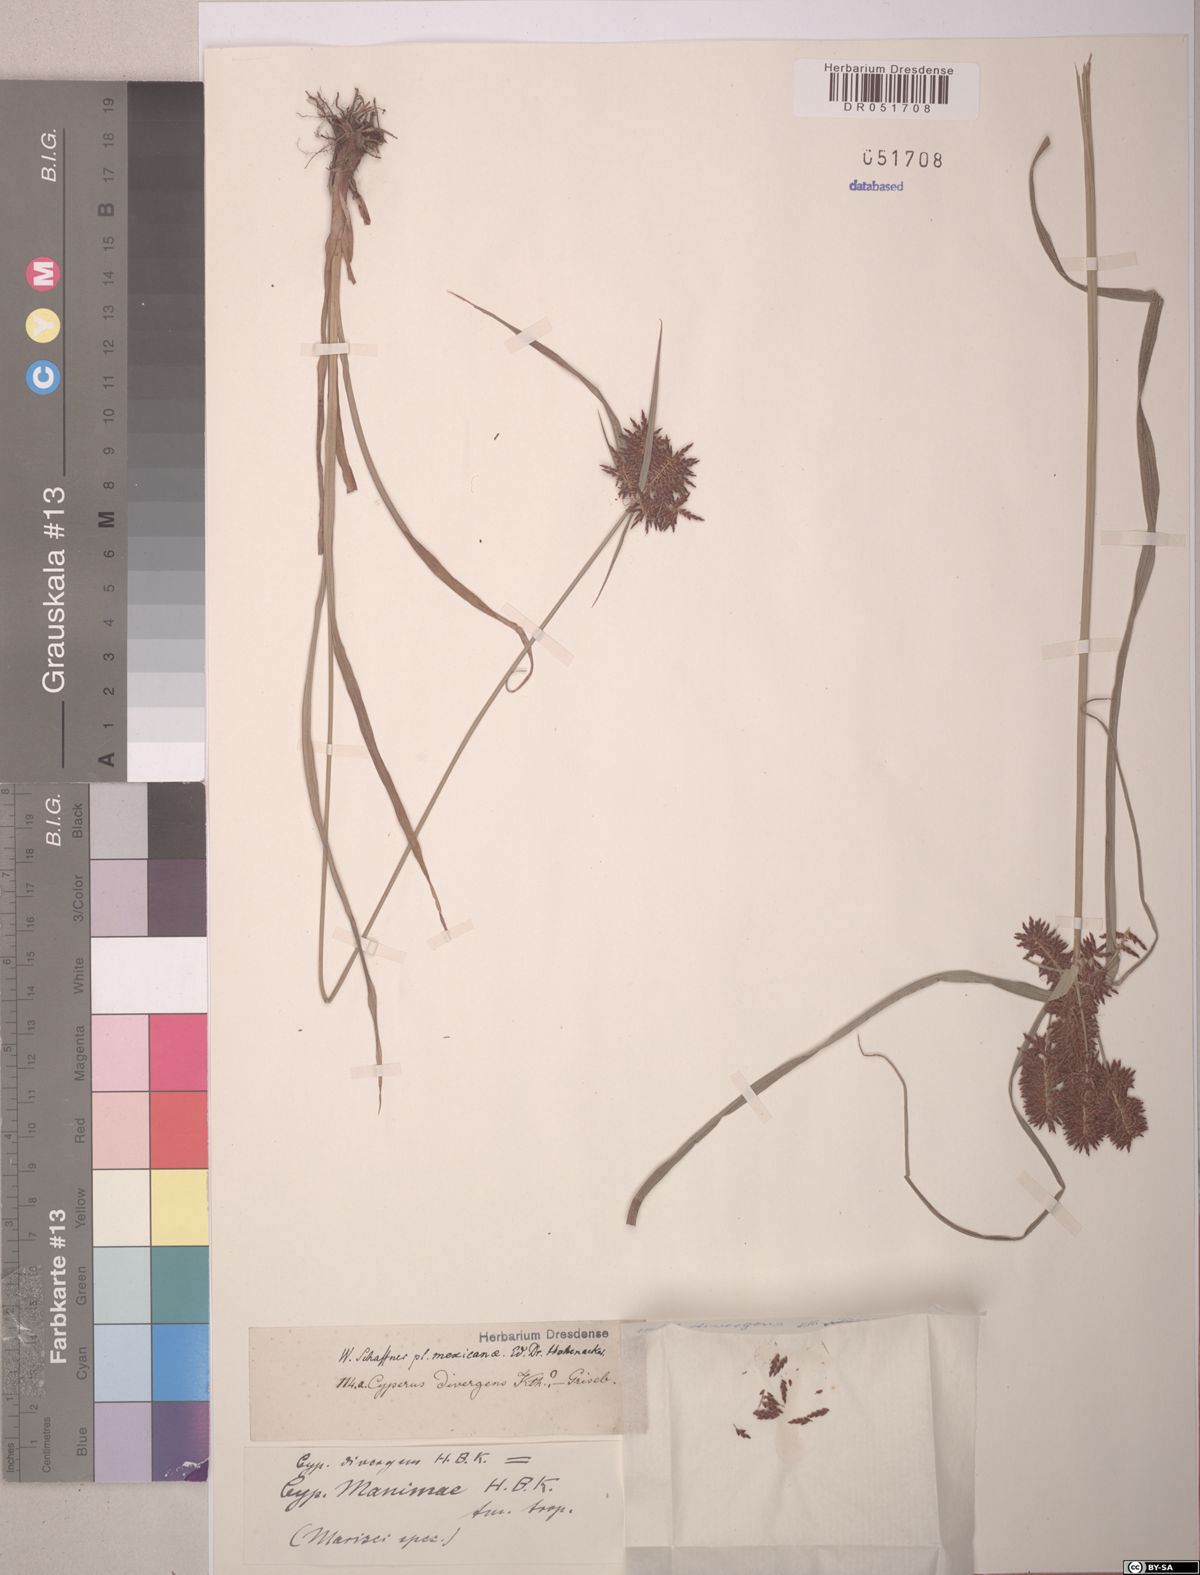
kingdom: Plantae
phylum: Tracheophyta
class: Liliopsida
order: Poales
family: Cyperaceae
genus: Cyperus
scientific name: Cyperus manimae
